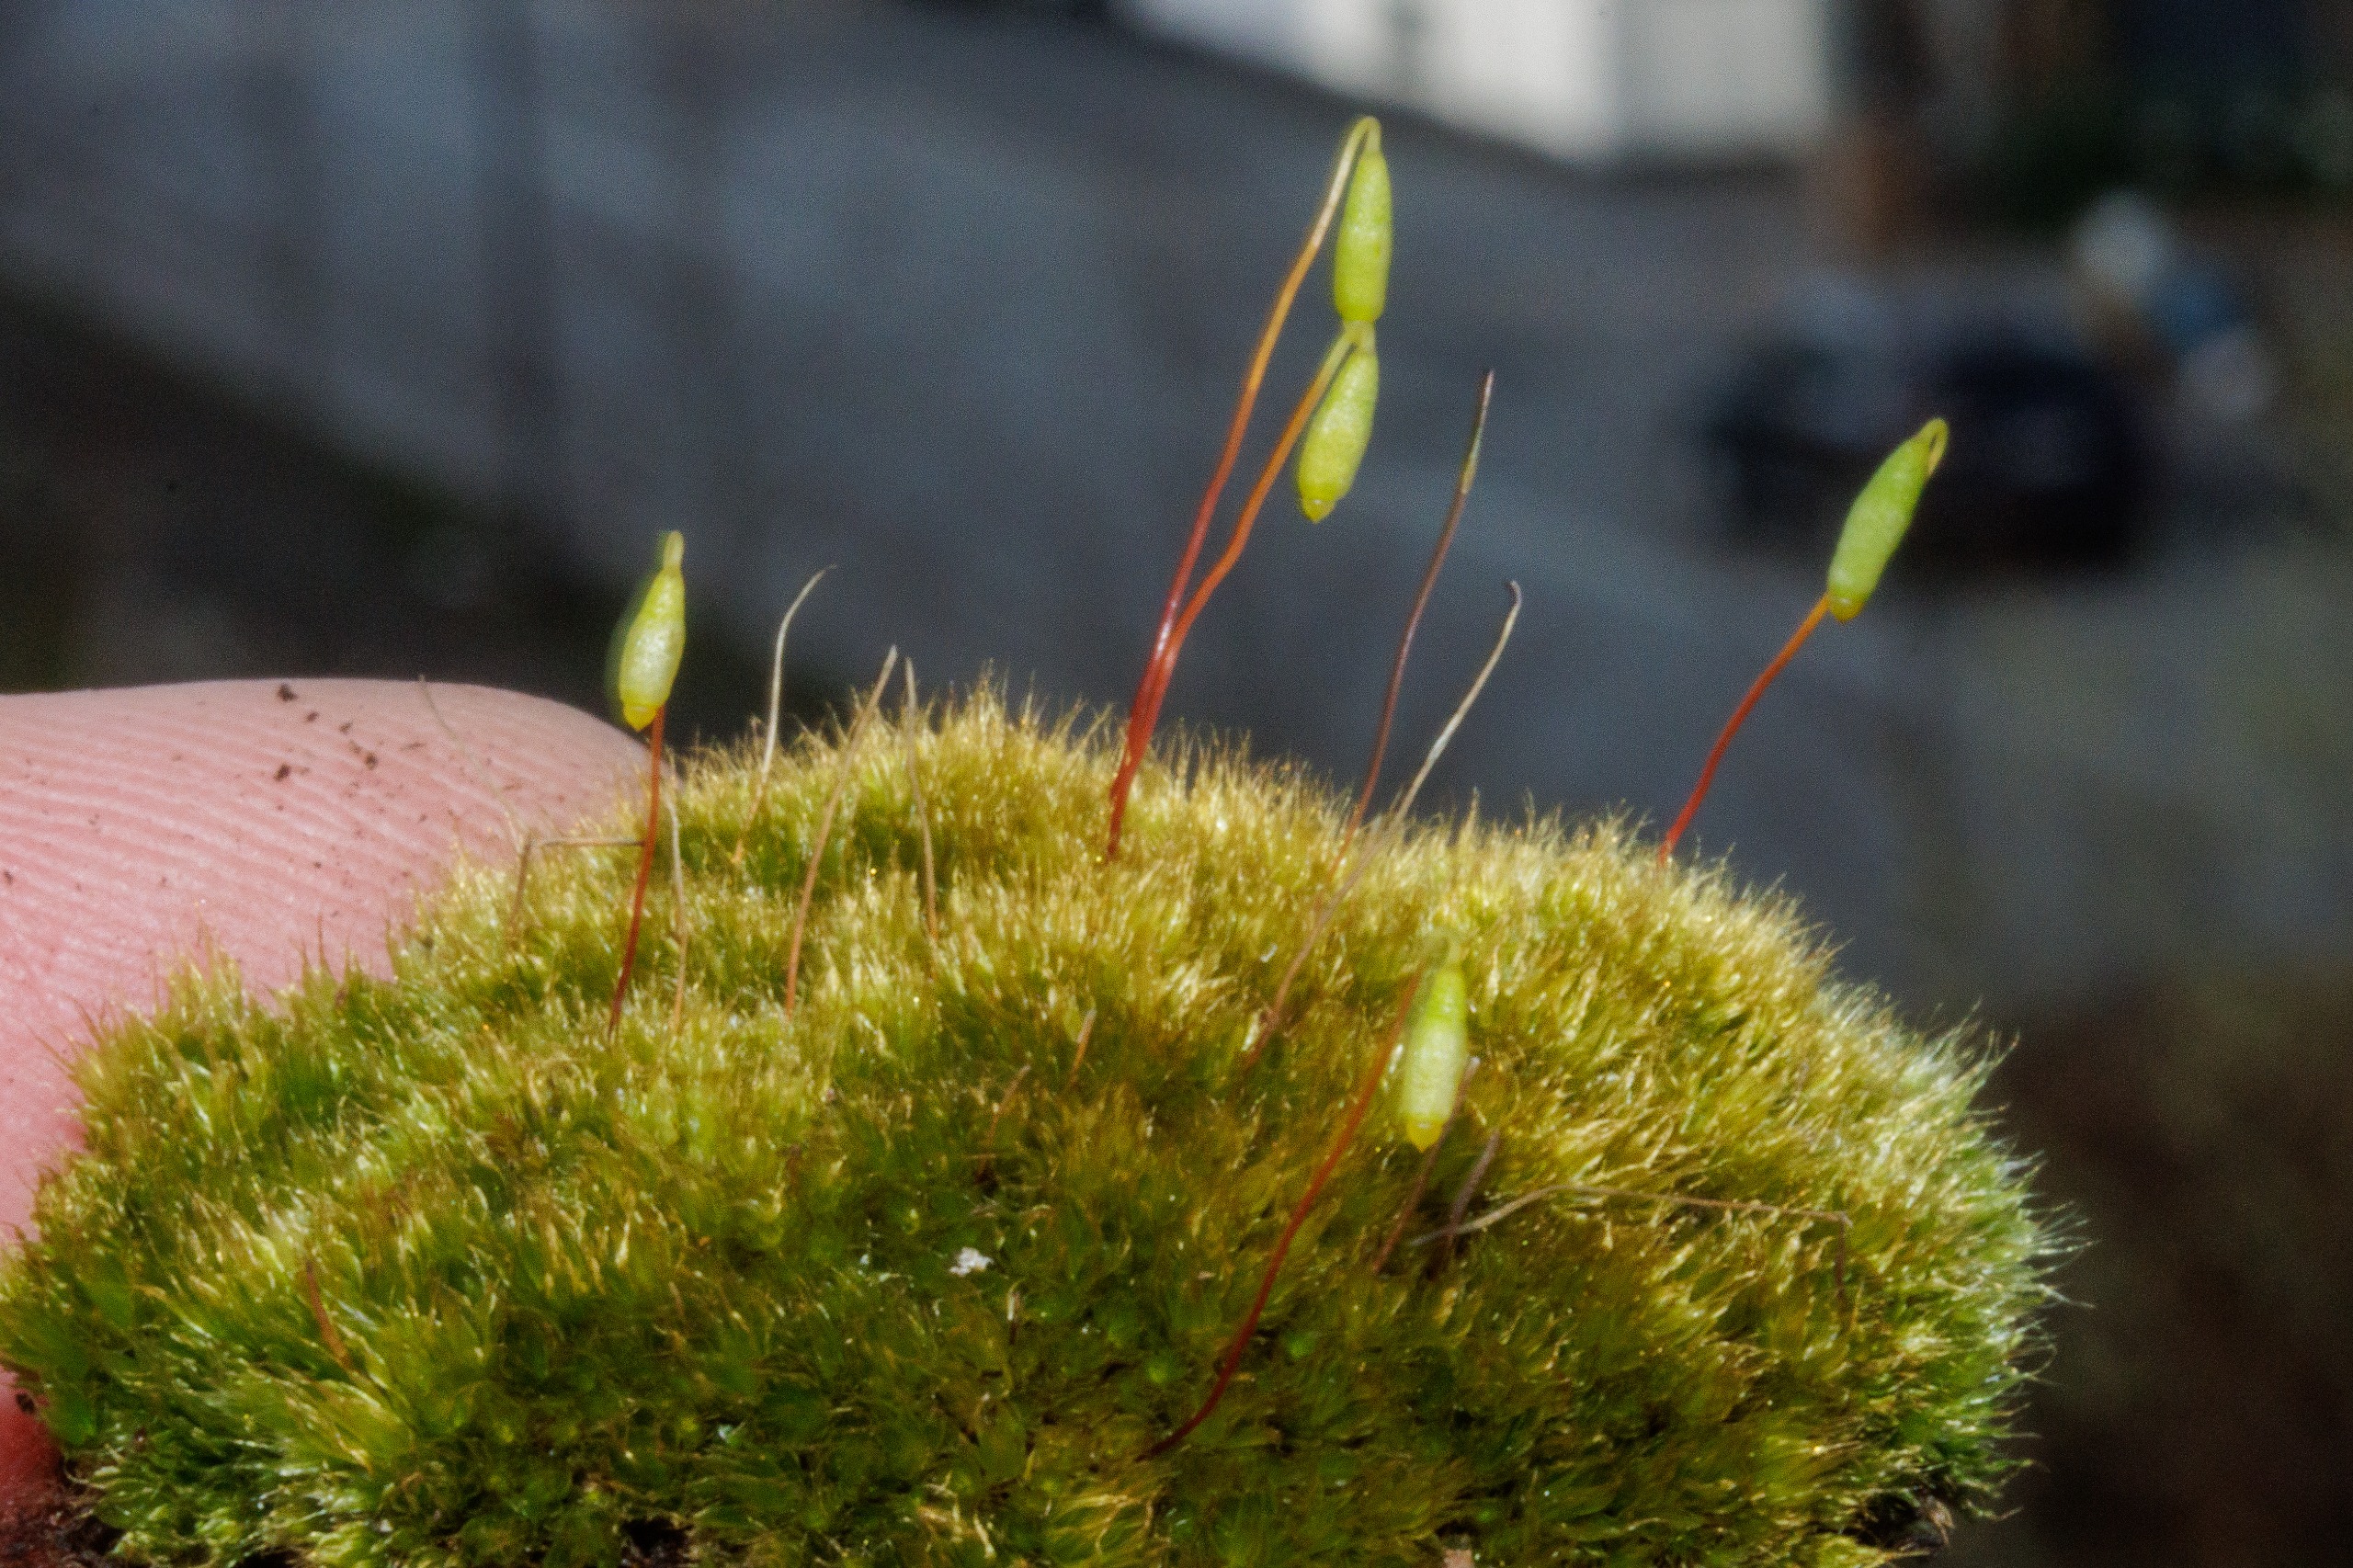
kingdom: Plantae
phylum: Bryophyta
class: Bryopsida
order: Bryales
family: Bryaceae
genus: Bryum
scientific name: Bryum
